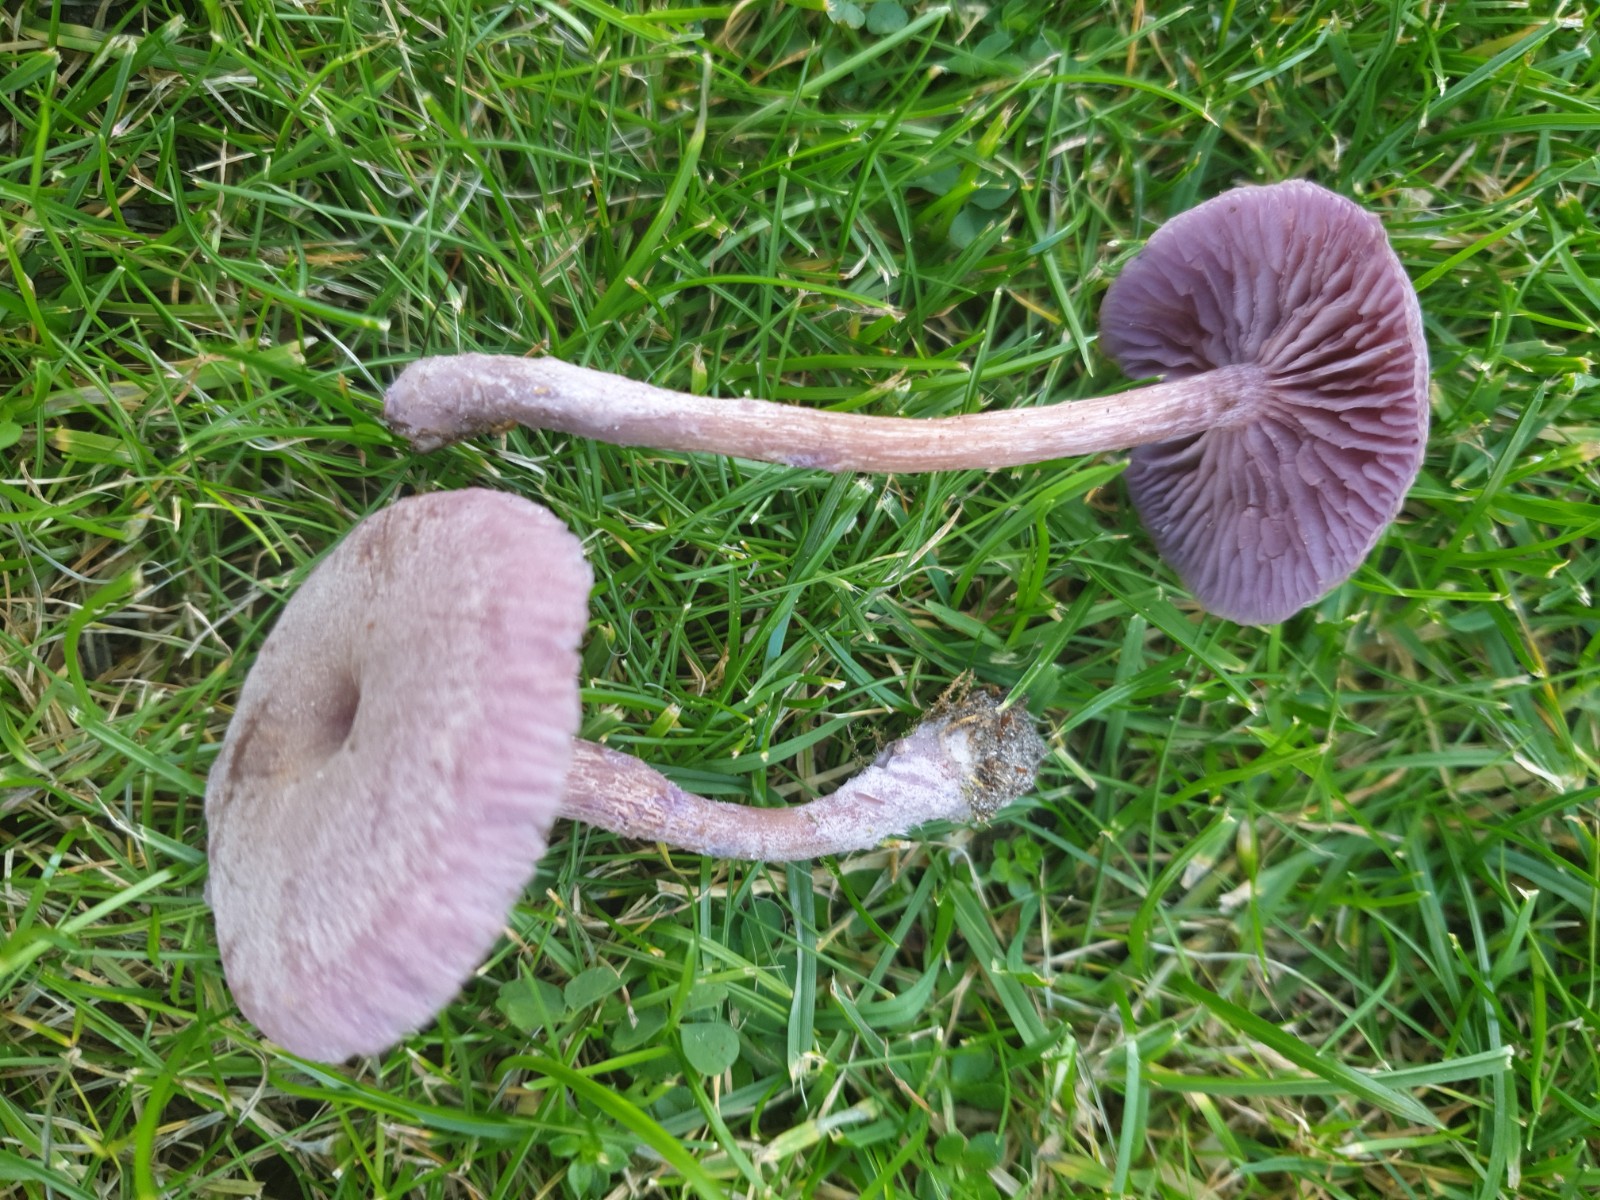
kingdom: Fungi
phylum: Basidiomycota
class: Agaricomycetes
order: Agaricales
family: Hydnangiaceae
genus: Laccaria
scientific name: Laccaria amethystina
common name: violet ametysthat
